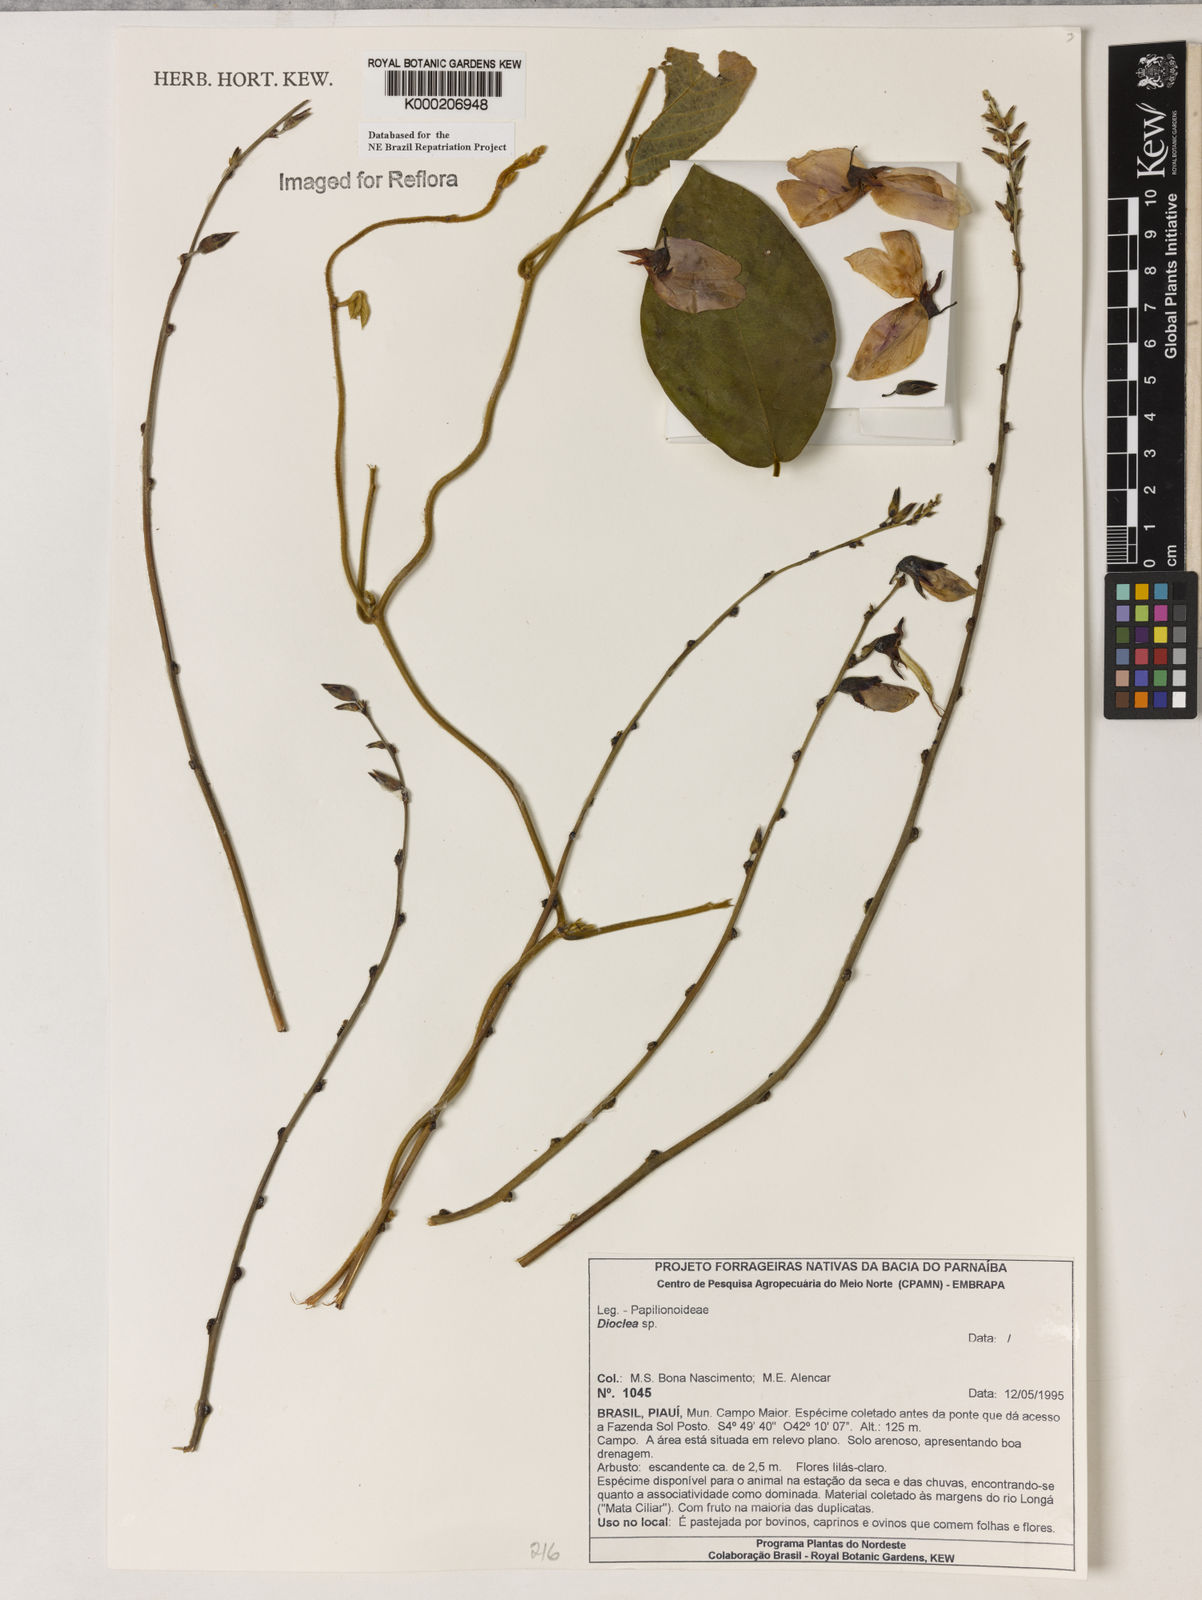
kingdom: Plantae
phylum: Tracheophyta
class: Magnoliopsida
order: Fabales
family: Fabaceae
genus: Dioclea
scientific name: Dioclea
